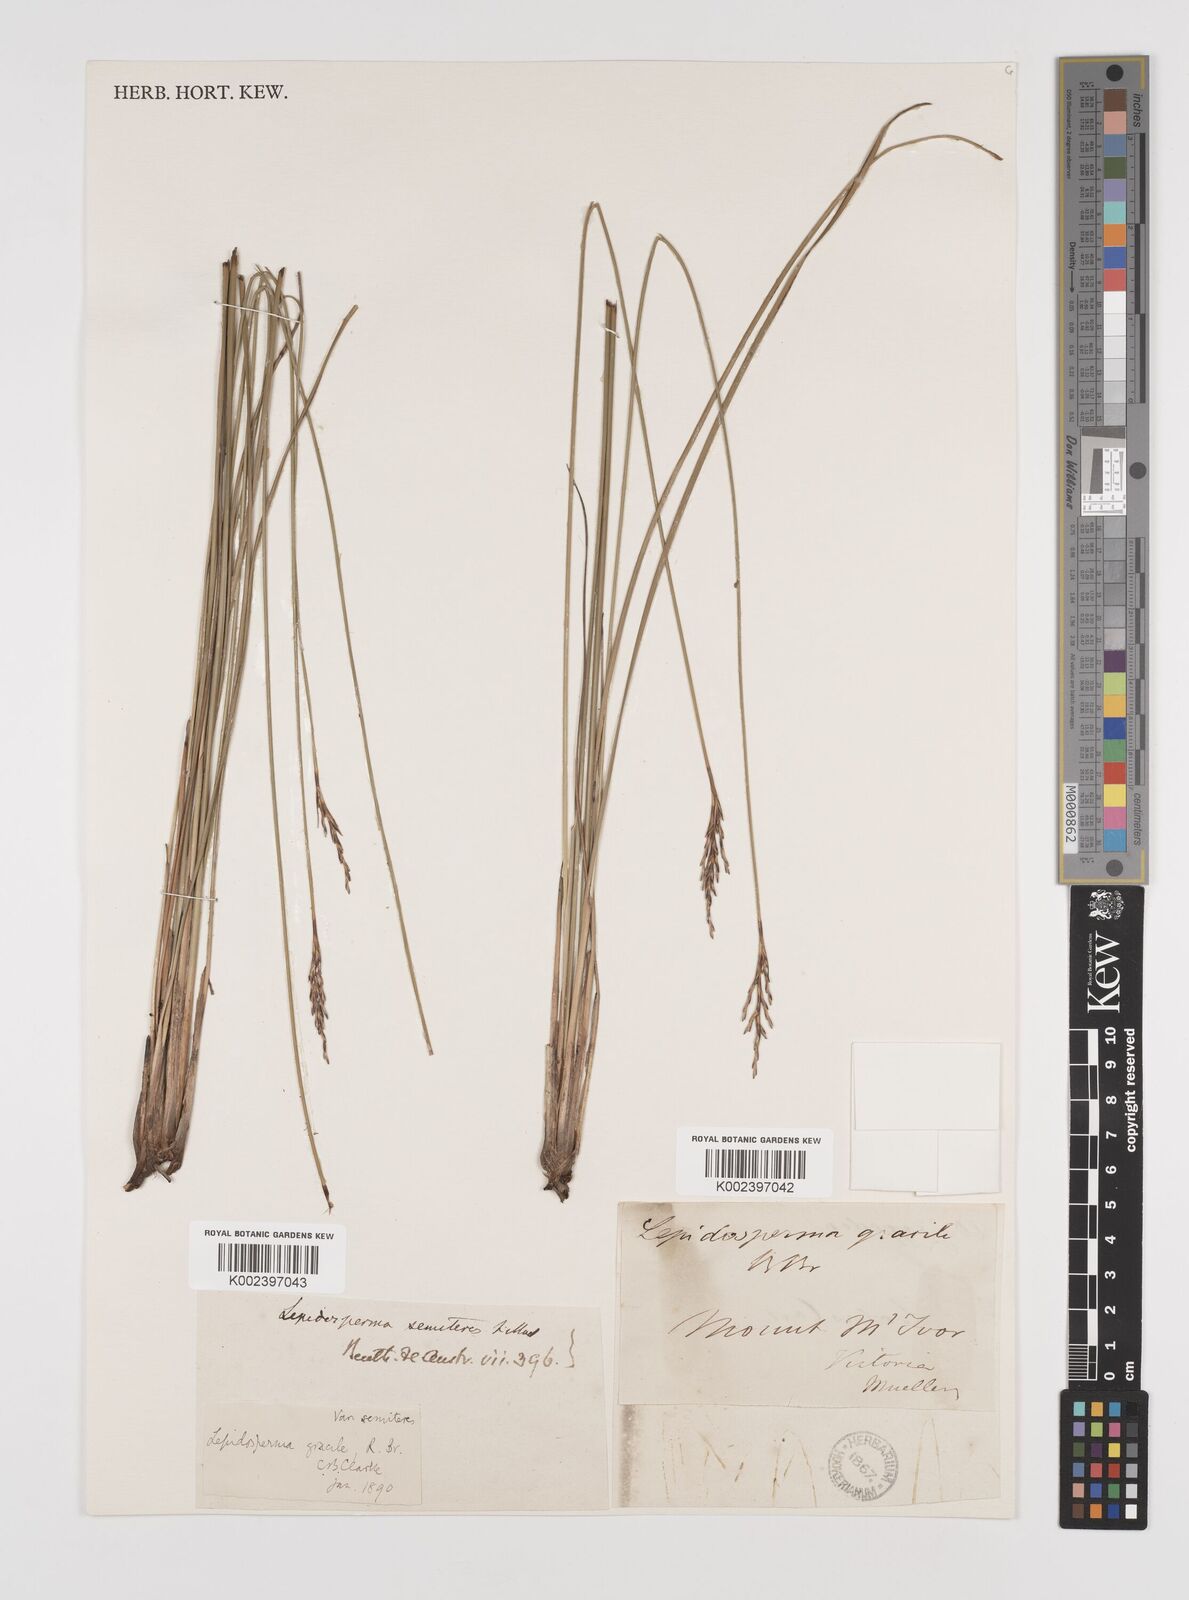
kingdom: Plantae
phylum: Tracheophyta
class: Liliopsida
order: Poales
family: Cyperaceae
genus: Lepidosperma
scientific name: Lepidosperma semiteres
